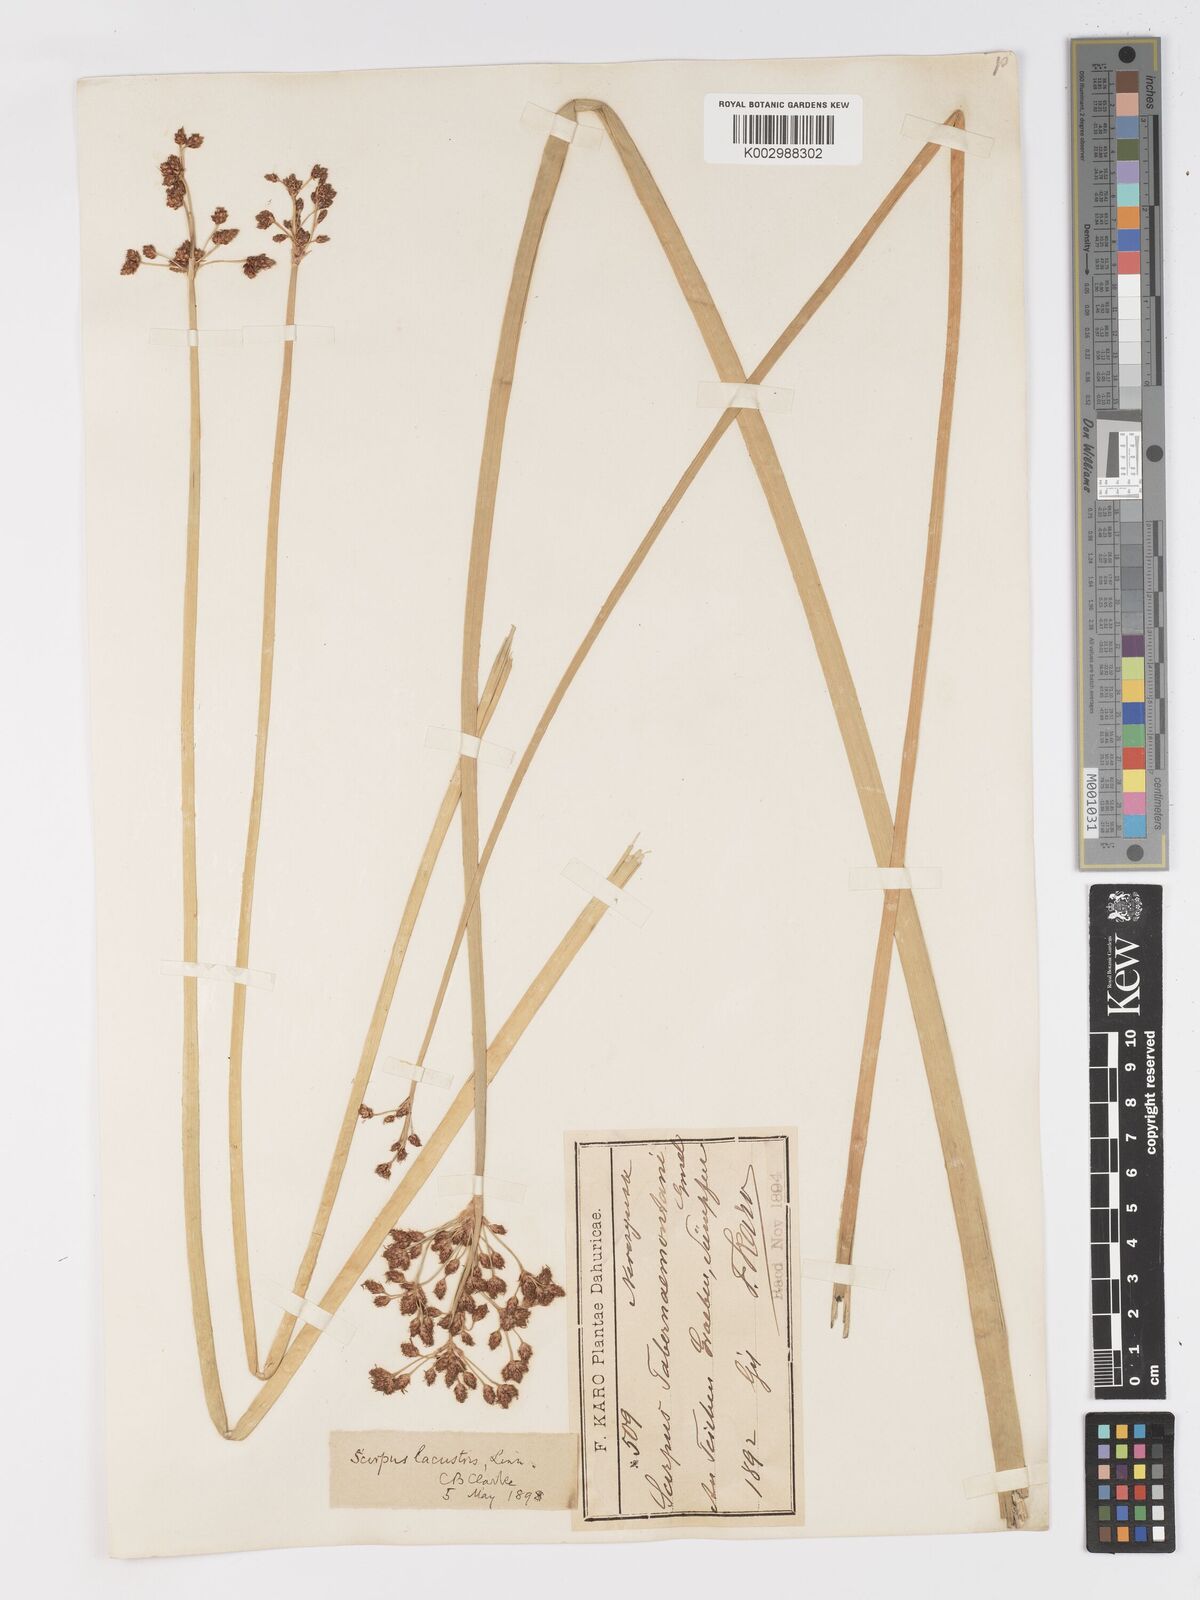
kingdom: Plantae
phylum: Tracheophyta
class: Liliopsida
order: Poales
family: Cyperaceae
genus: Schoenoplectus
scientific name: Schoenoplectus lacustris
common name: Common club-rush
